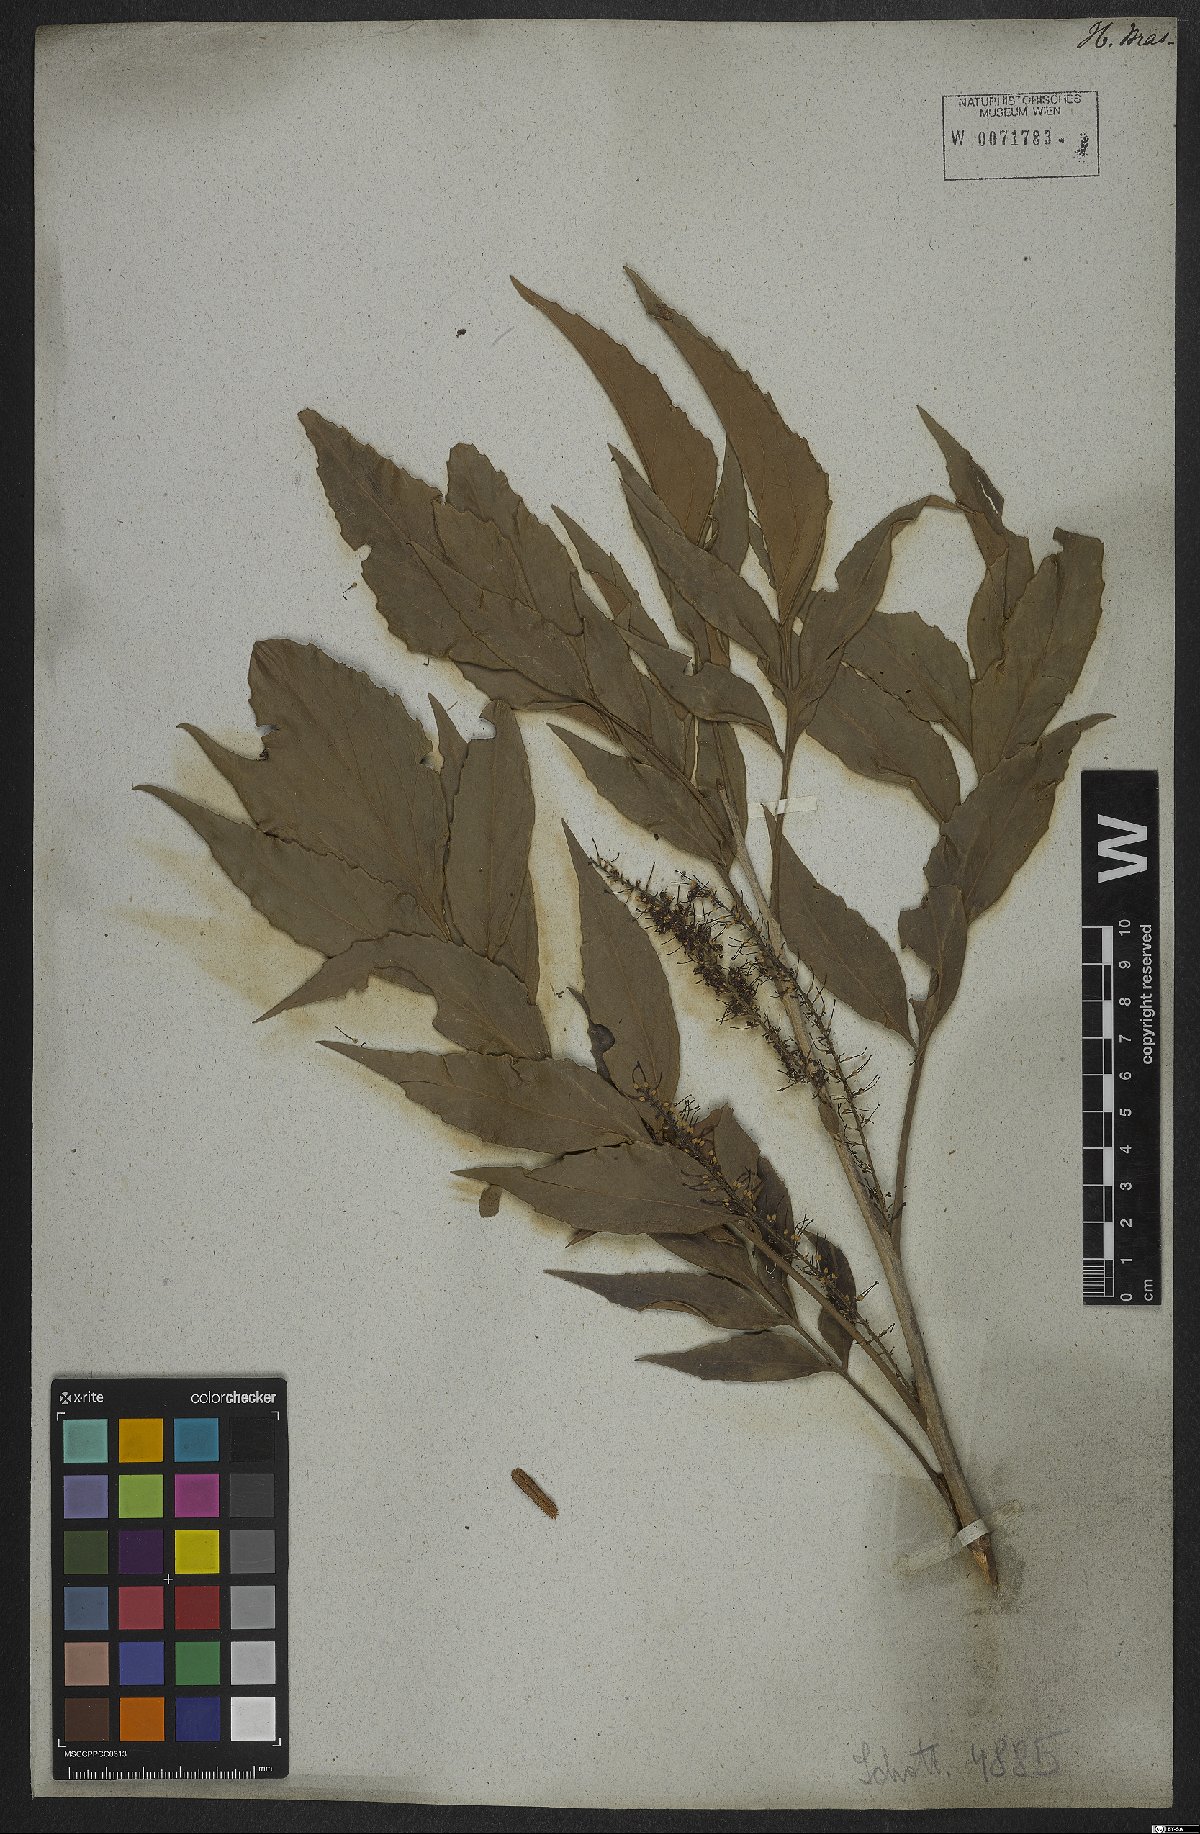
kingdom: Plantae
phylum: Tracheophyta
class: Magnoliopsida
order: Proteales
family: Proteaceae
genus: Roupala
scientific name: Roupala montana
